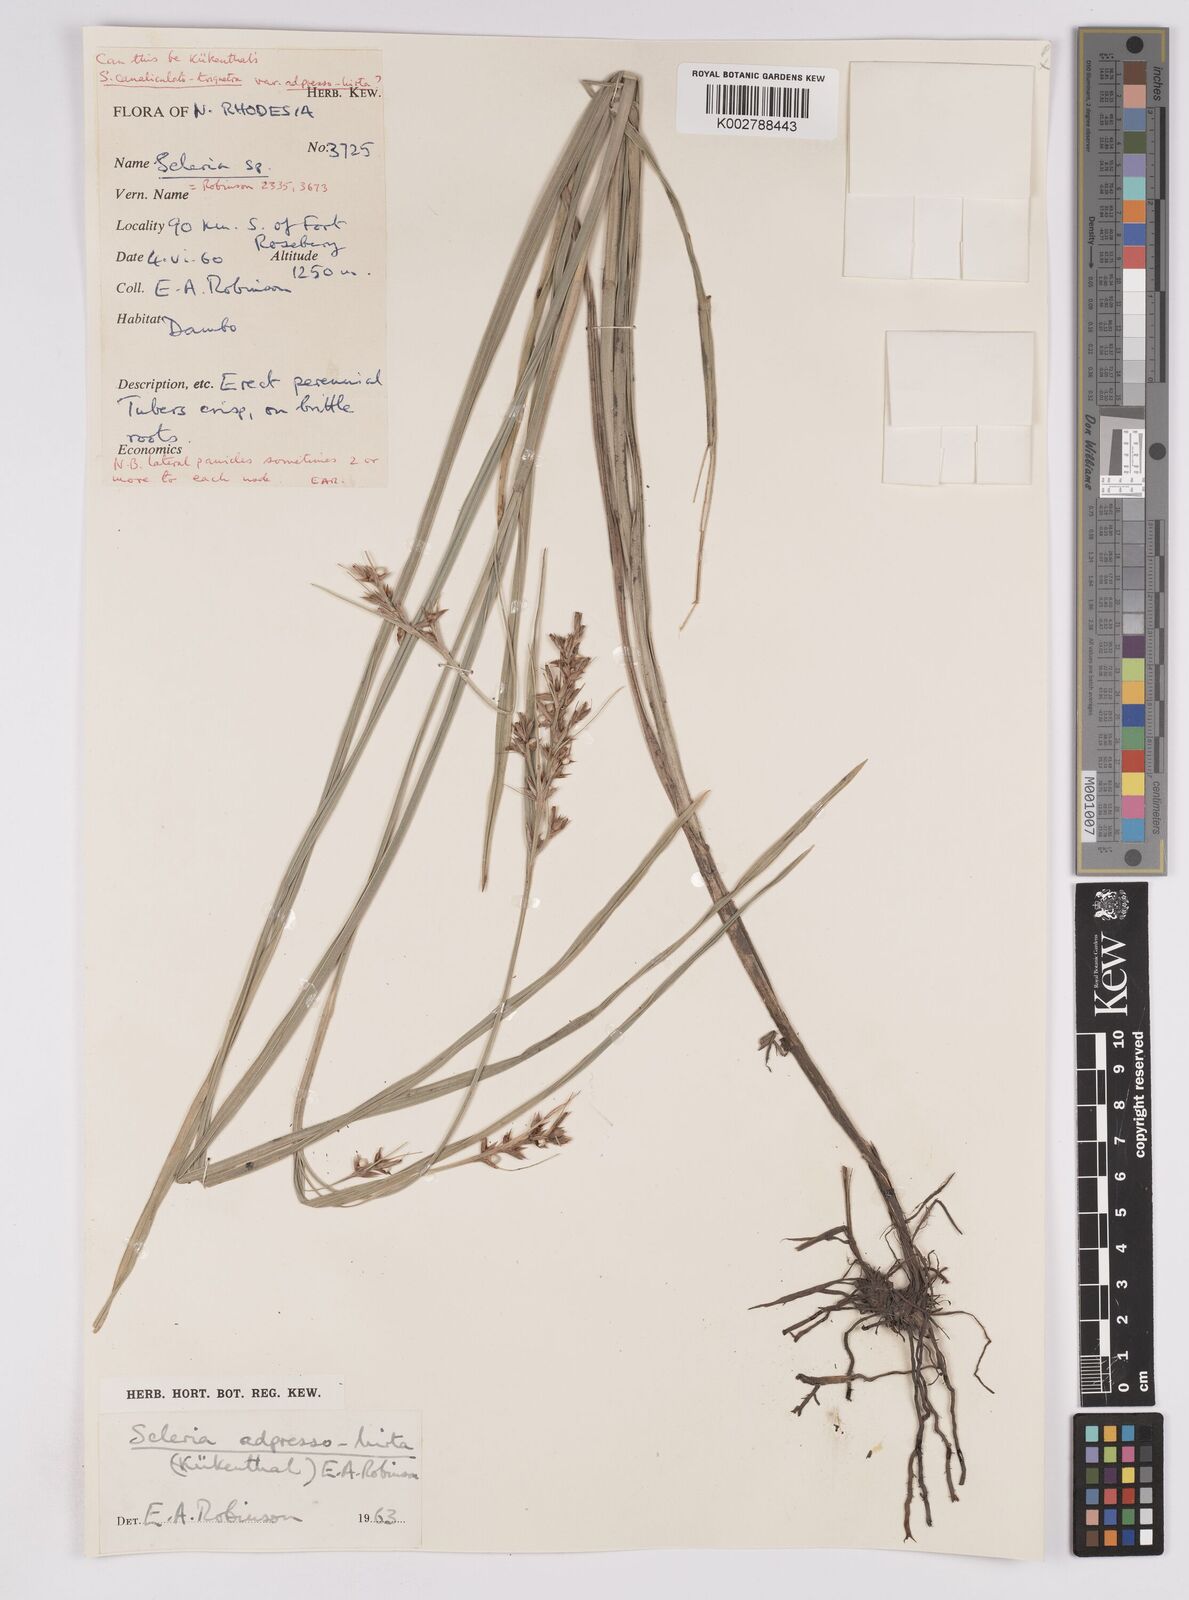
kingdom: Plantae
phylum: Tracheophyta
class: Liliopsida
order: Poales
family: Cyperaceae
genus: Scleria
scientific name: Scleria adpressohirta
